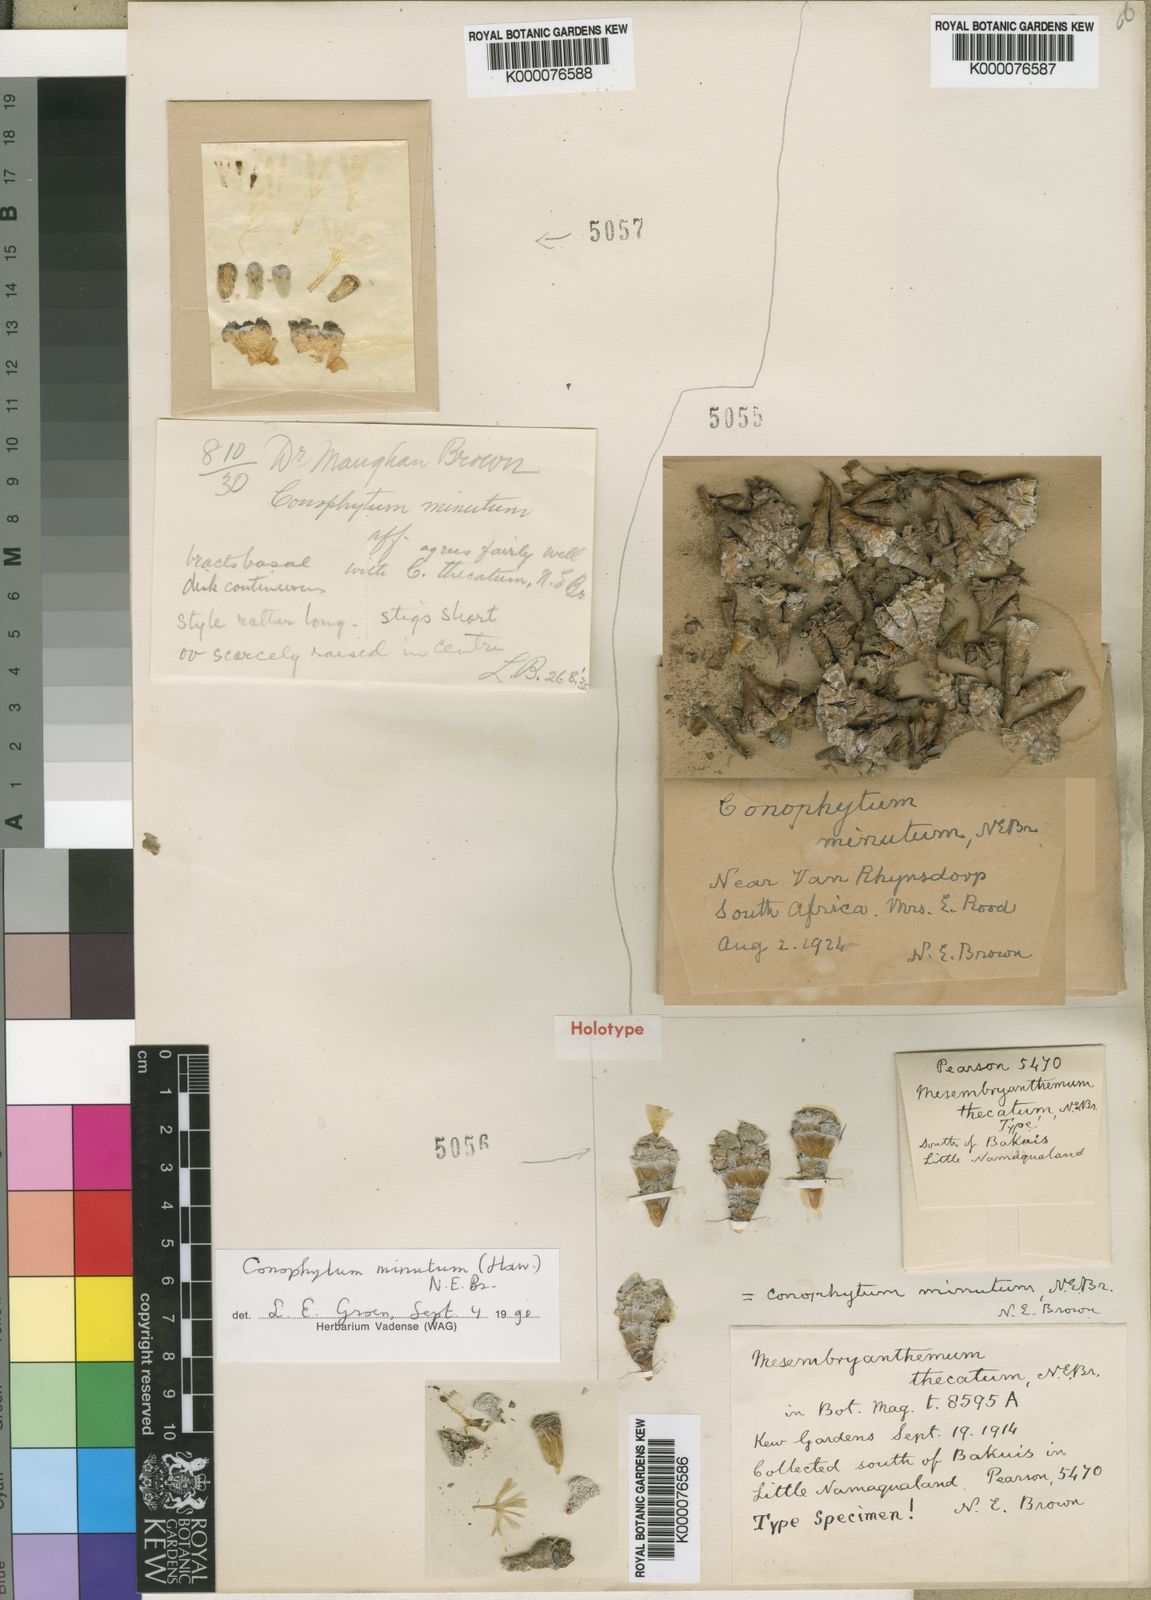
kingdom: Plantae
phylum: Tracheophyta
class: Magnoliopsida
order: Caryophyllales
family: Aizoaceae
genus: Conophytum
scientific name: Conophytum minutum
